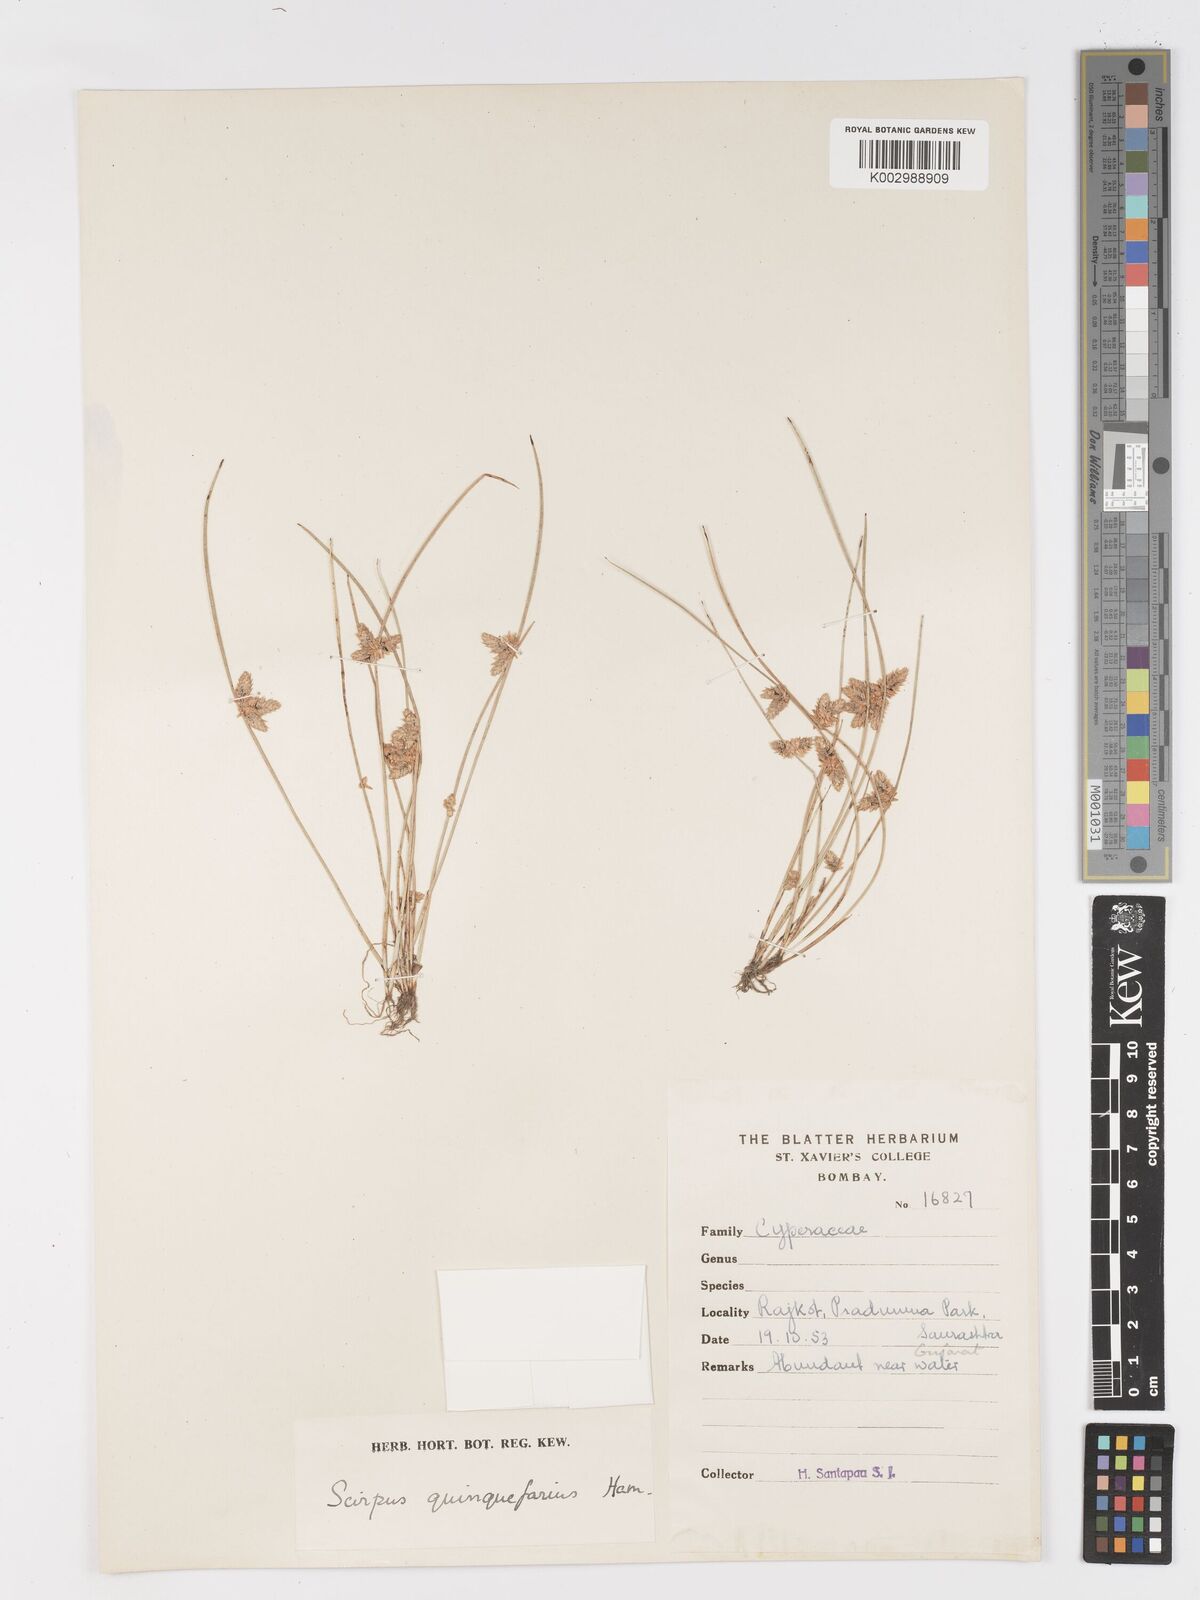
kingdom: Plantae
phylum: Tracheophyta
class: Liliopsida
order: Poales
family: Cyperaceae
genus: Schoenoplectiella
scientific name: Schoenoplectiella roylei
